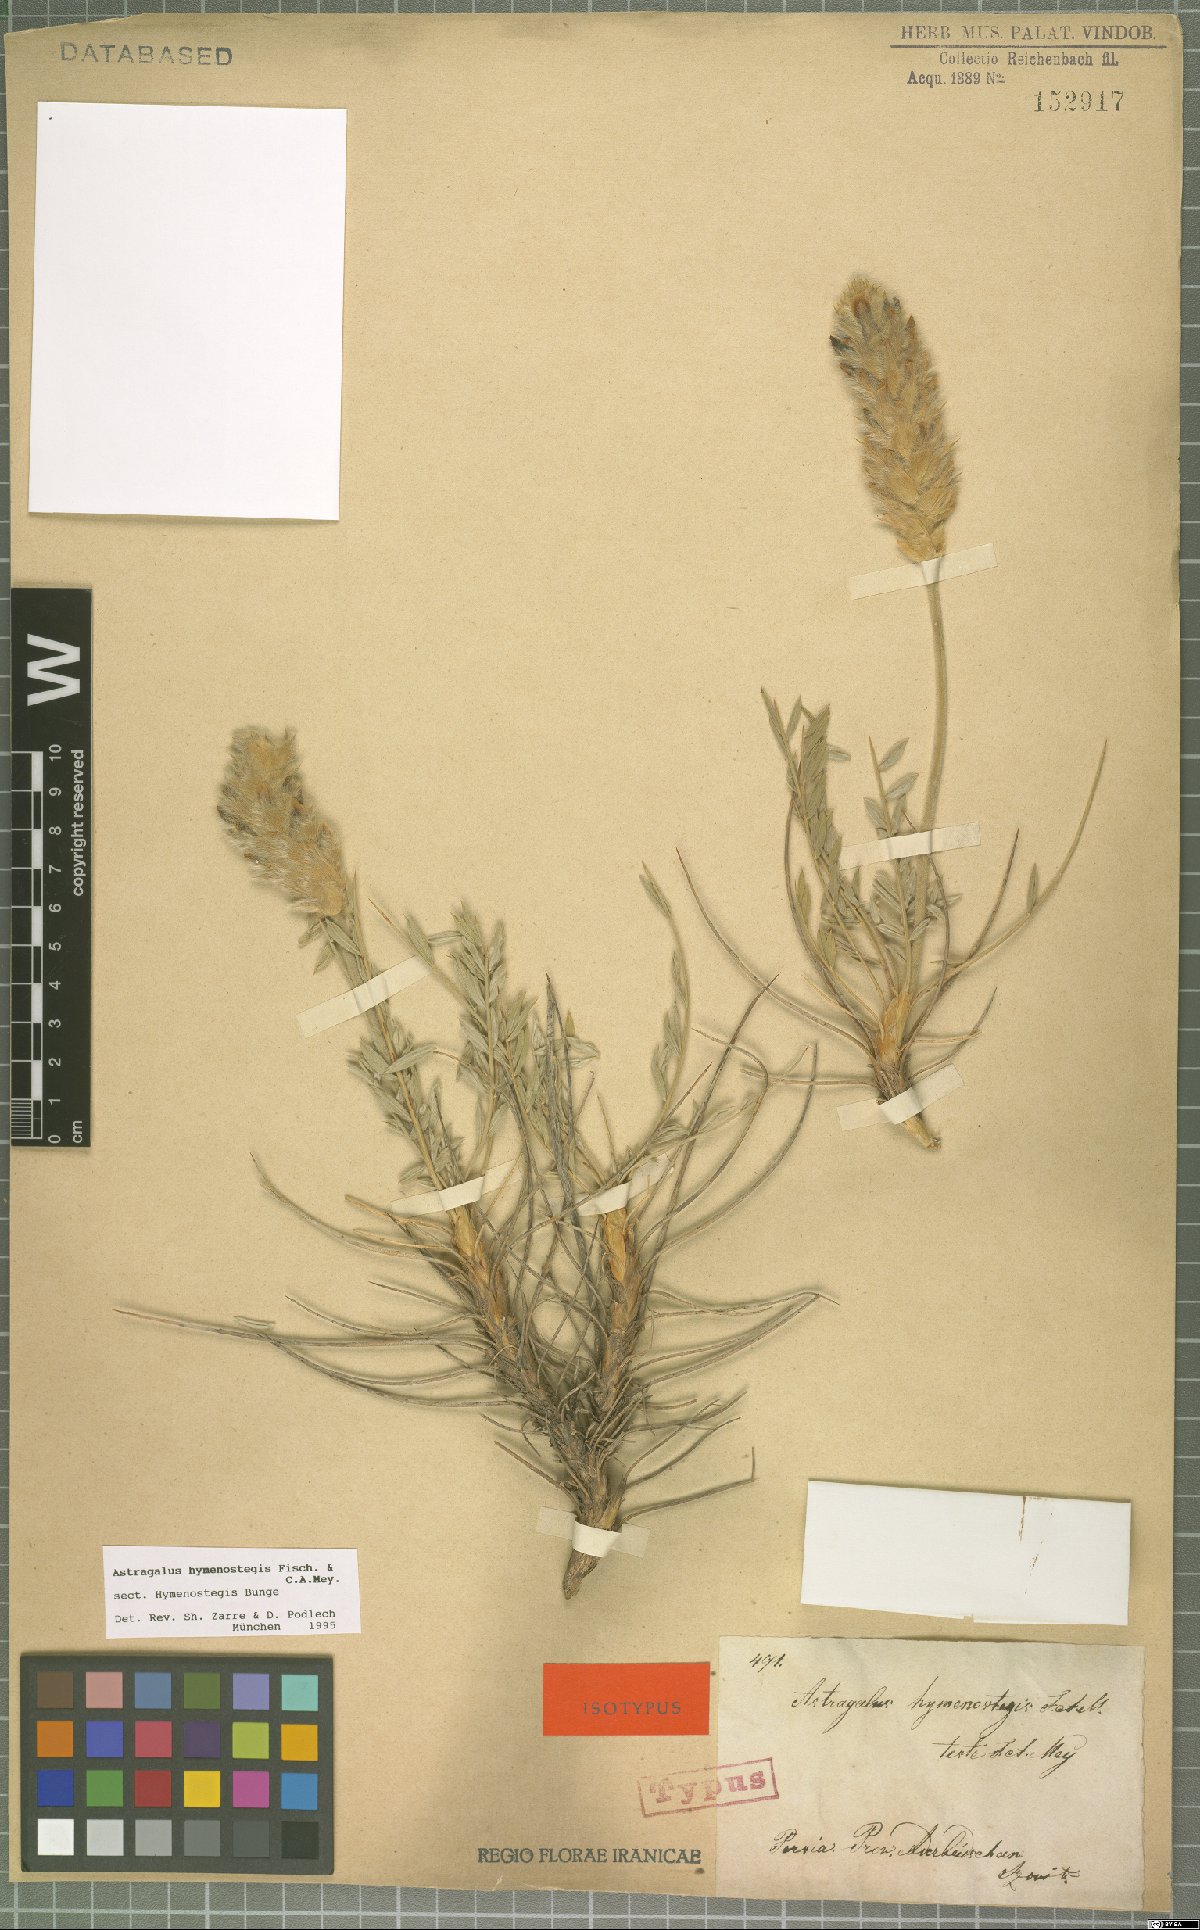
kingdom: Plantae
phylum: Tracheophyta
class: Magnoliopsida
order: Fabales
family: Fabaceae
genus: Astragalus
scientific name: Astragalus hymenostegis
